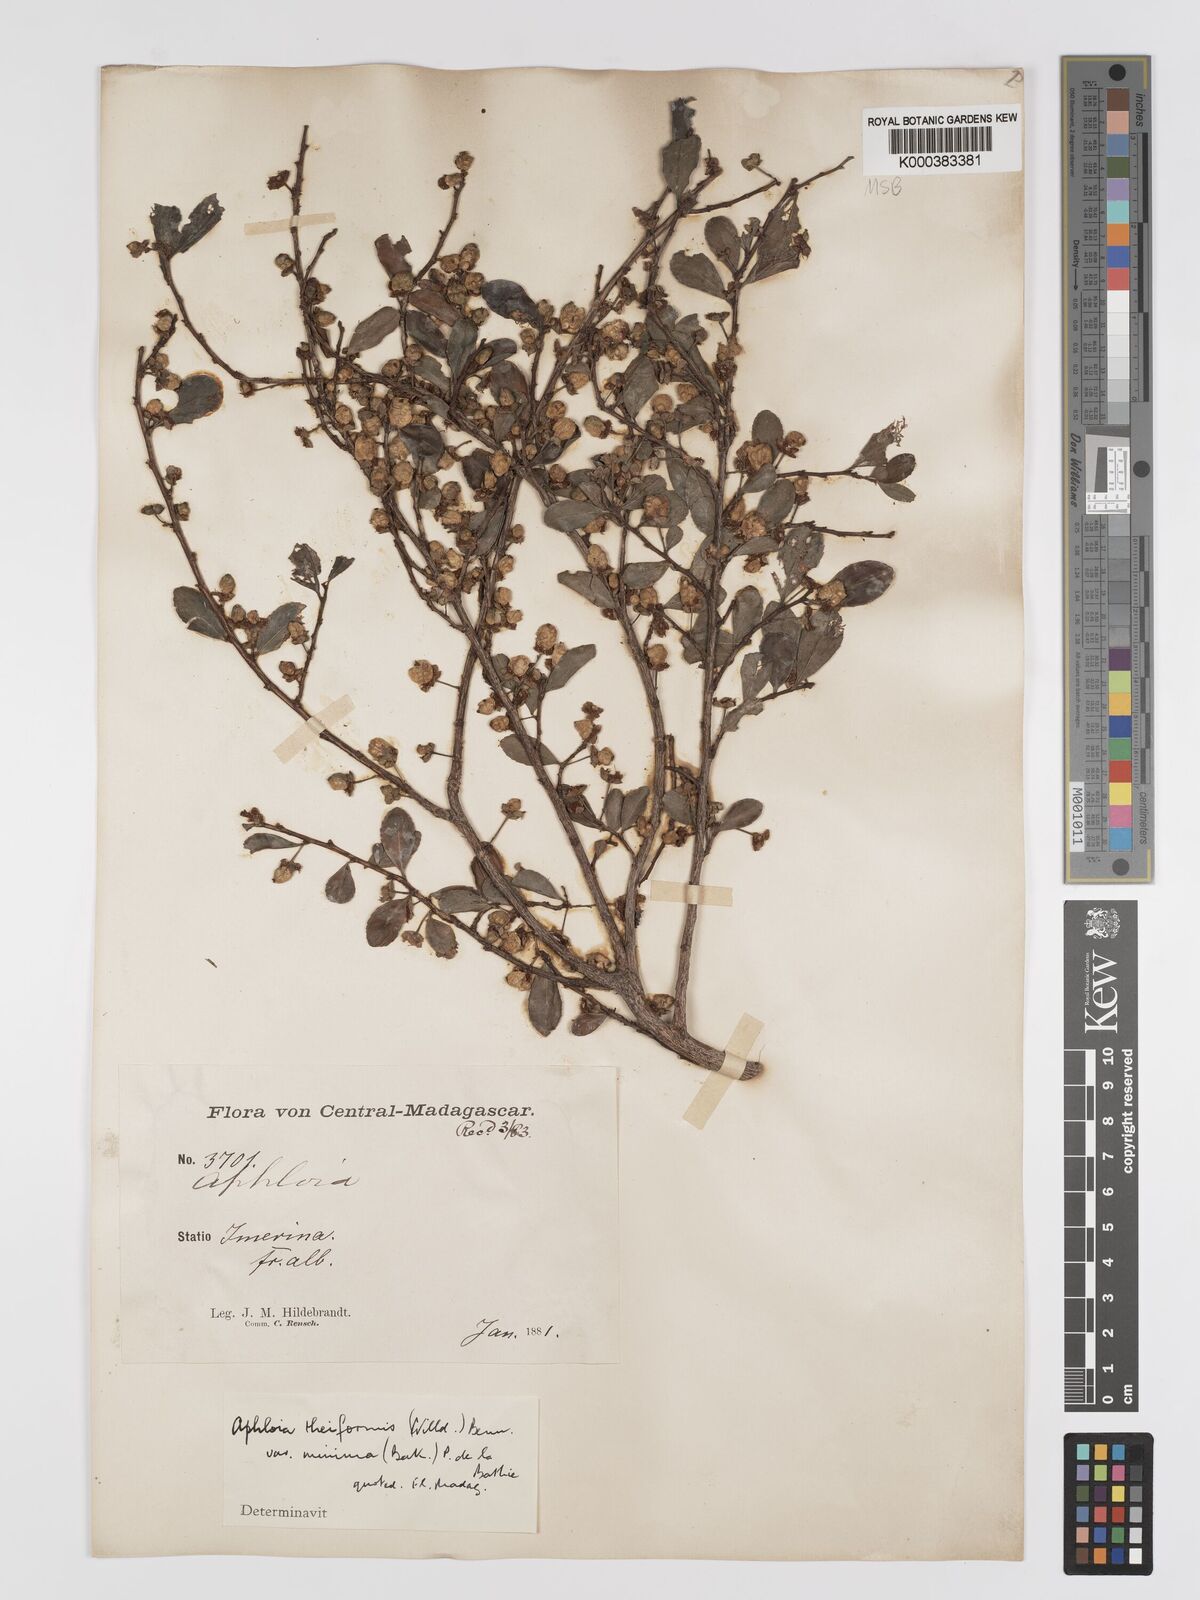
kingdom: Plantae
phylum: Tracheophyta
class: Magnoliopsida
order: Crossosomatales
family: Aphloiaceae
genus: Aphloia
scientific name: Aphloia theiformis
